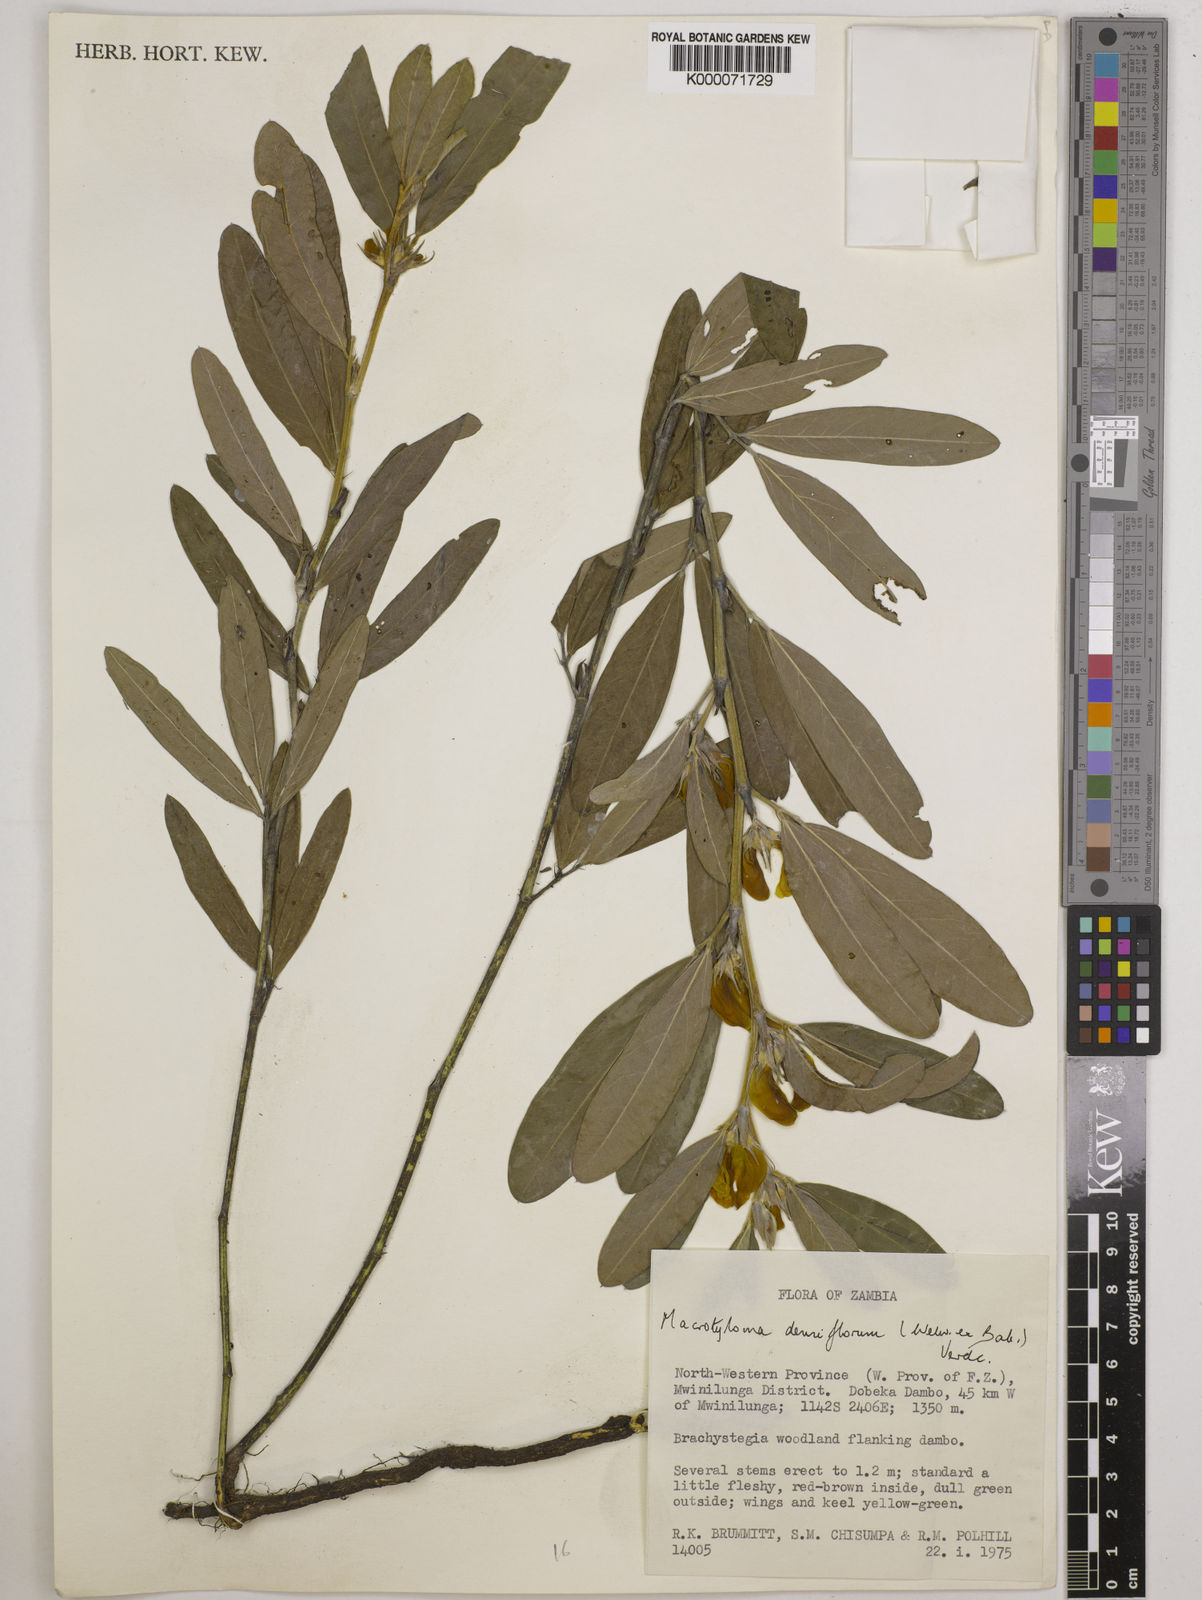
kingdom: Plantae
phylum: Tracheophyta
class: Magnoliopsida
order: Fabales
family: Fabaceae
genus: Macrotyloma
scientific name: Macrotyloma densiflorum
